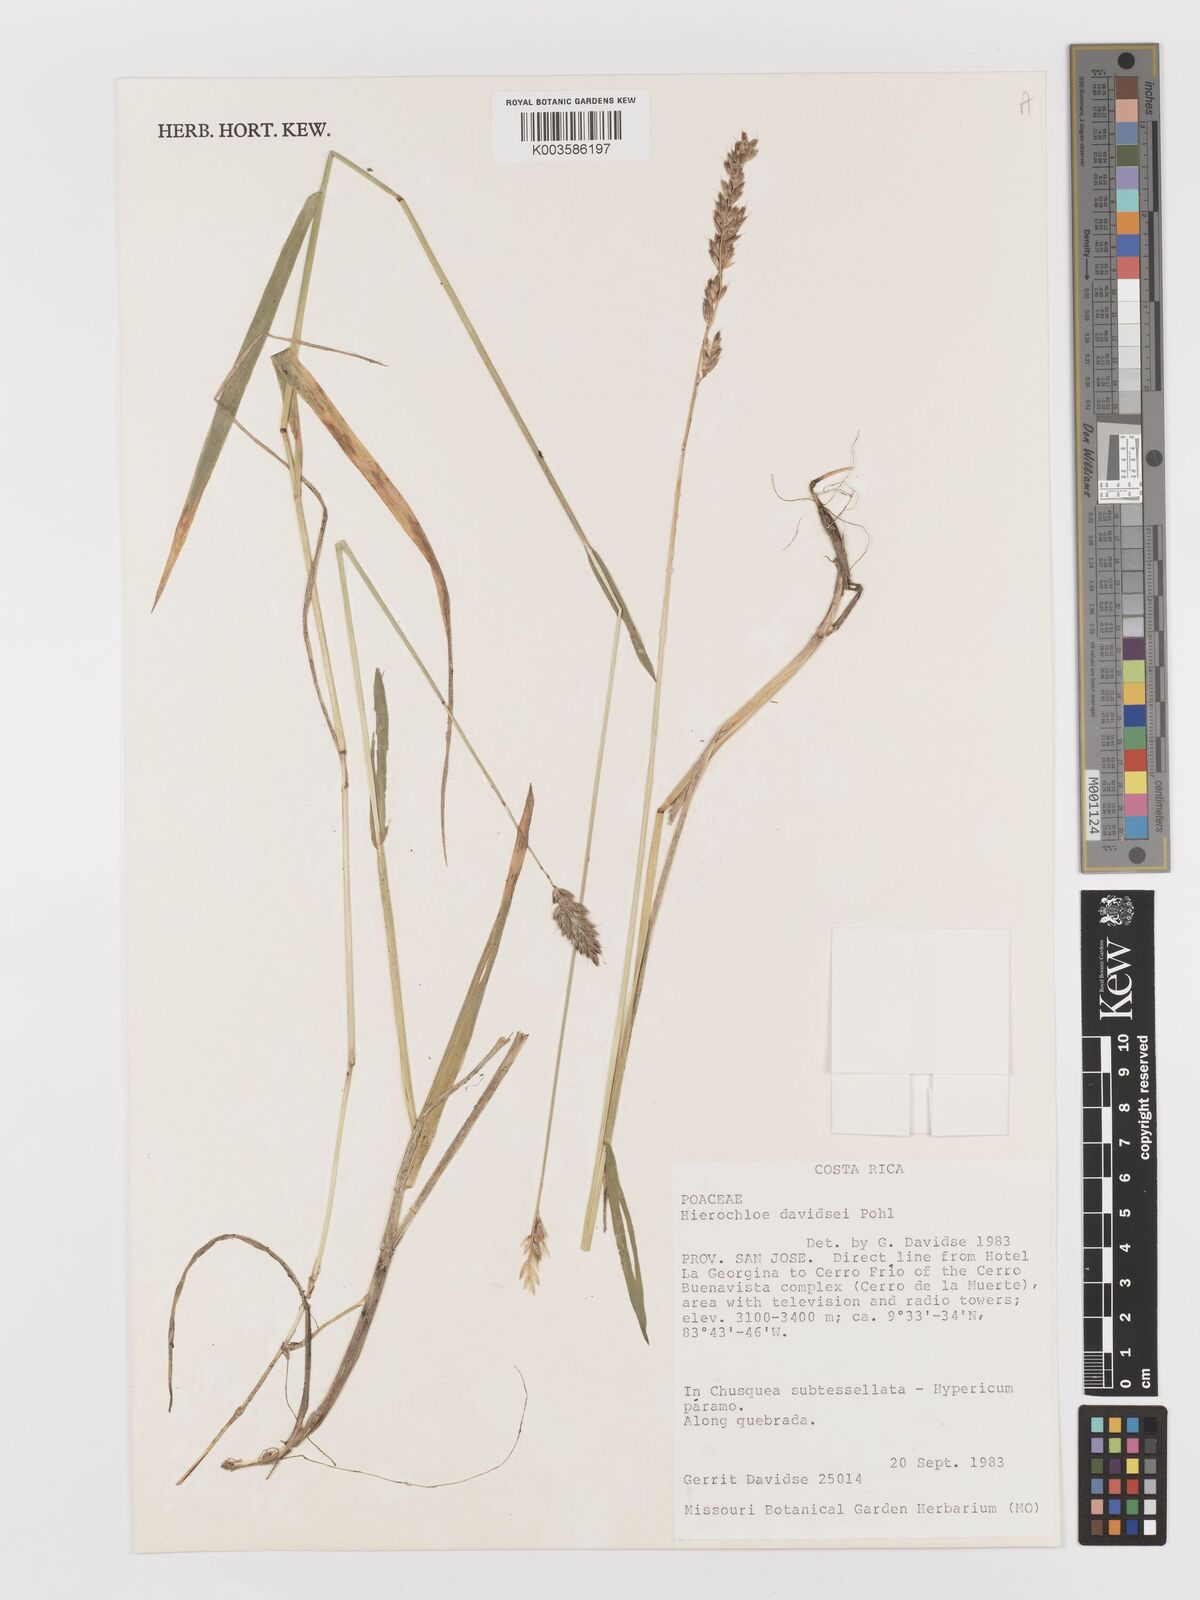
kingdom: Plantae
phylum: Tracheophyta
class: Liliopsida
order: Poales
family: Poaceae
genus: Anthoxanthum
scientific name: Anthoxanthum davidsei
